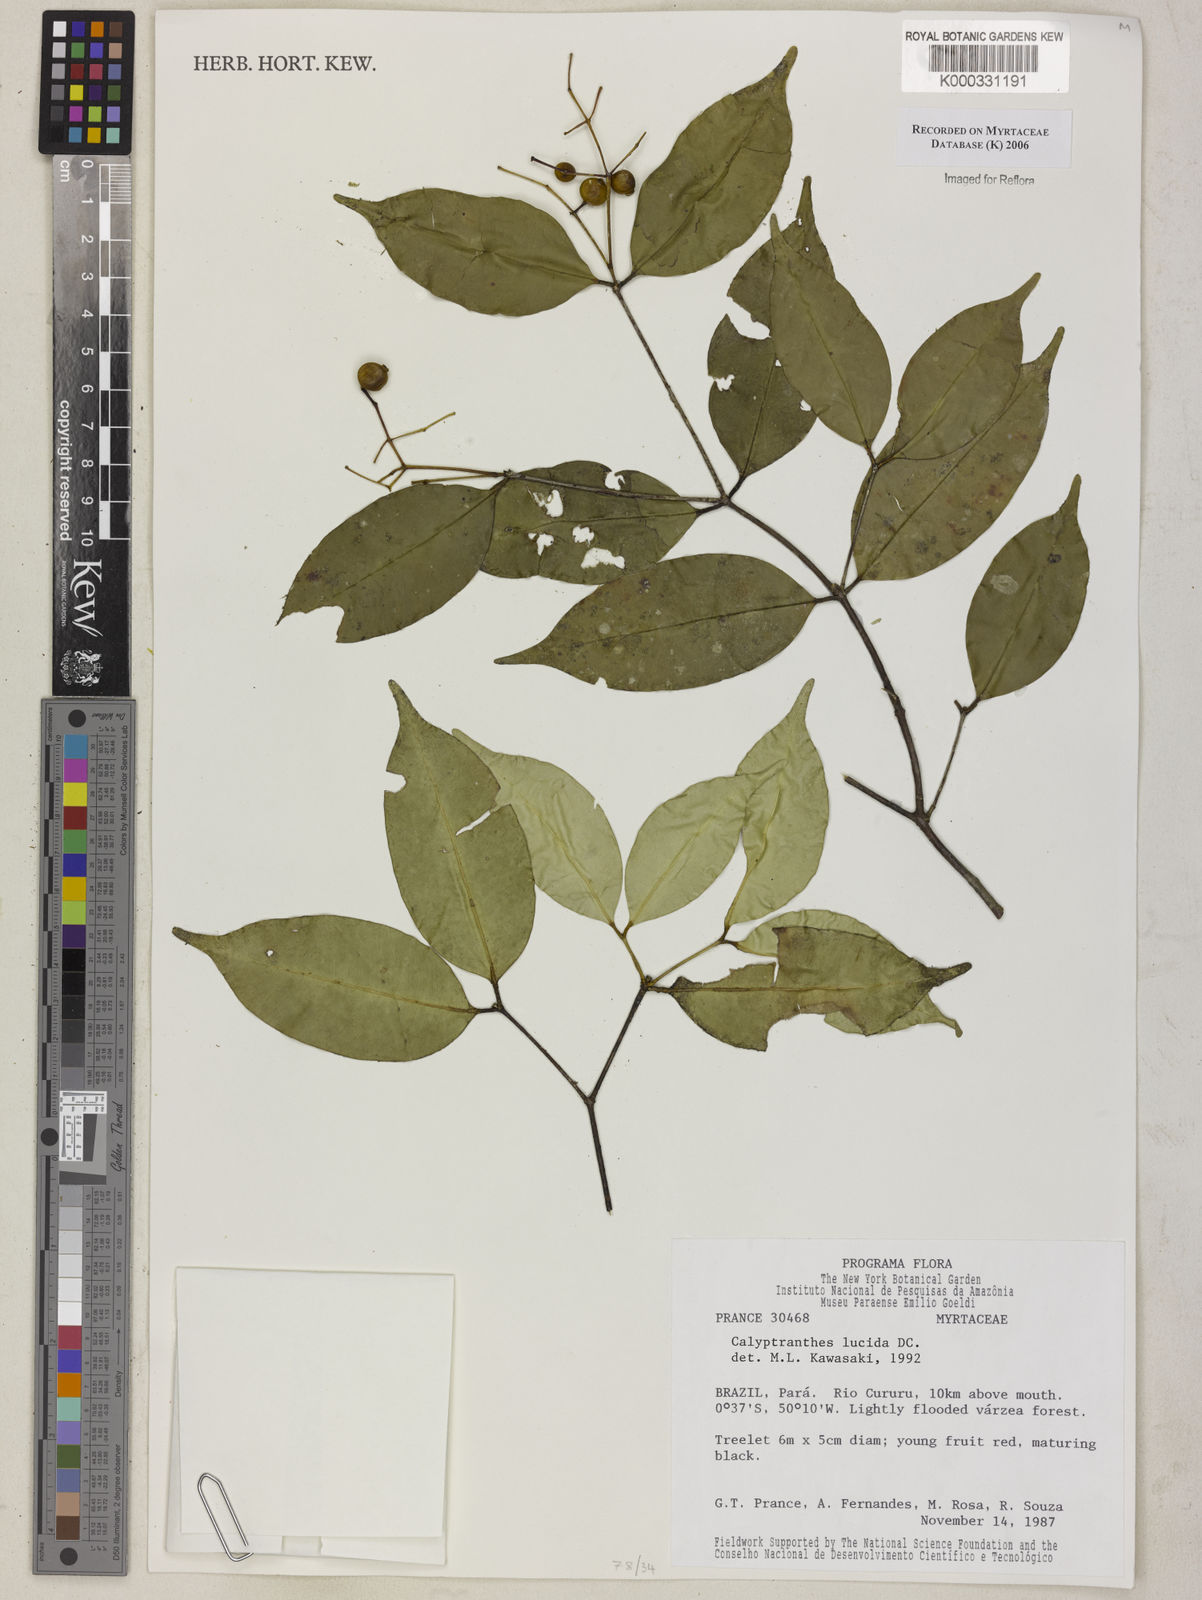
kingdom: Plantae
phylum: Tracheophyta
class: Magnoliopsida
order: Myrtales
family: Myrtaceae
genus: Myrcia
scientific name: Myrcia neolucida
